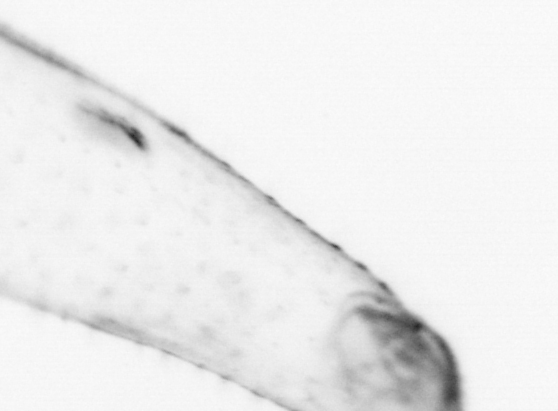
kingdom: Animalia
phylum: Chaetognatha
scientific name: Chaetognatha
